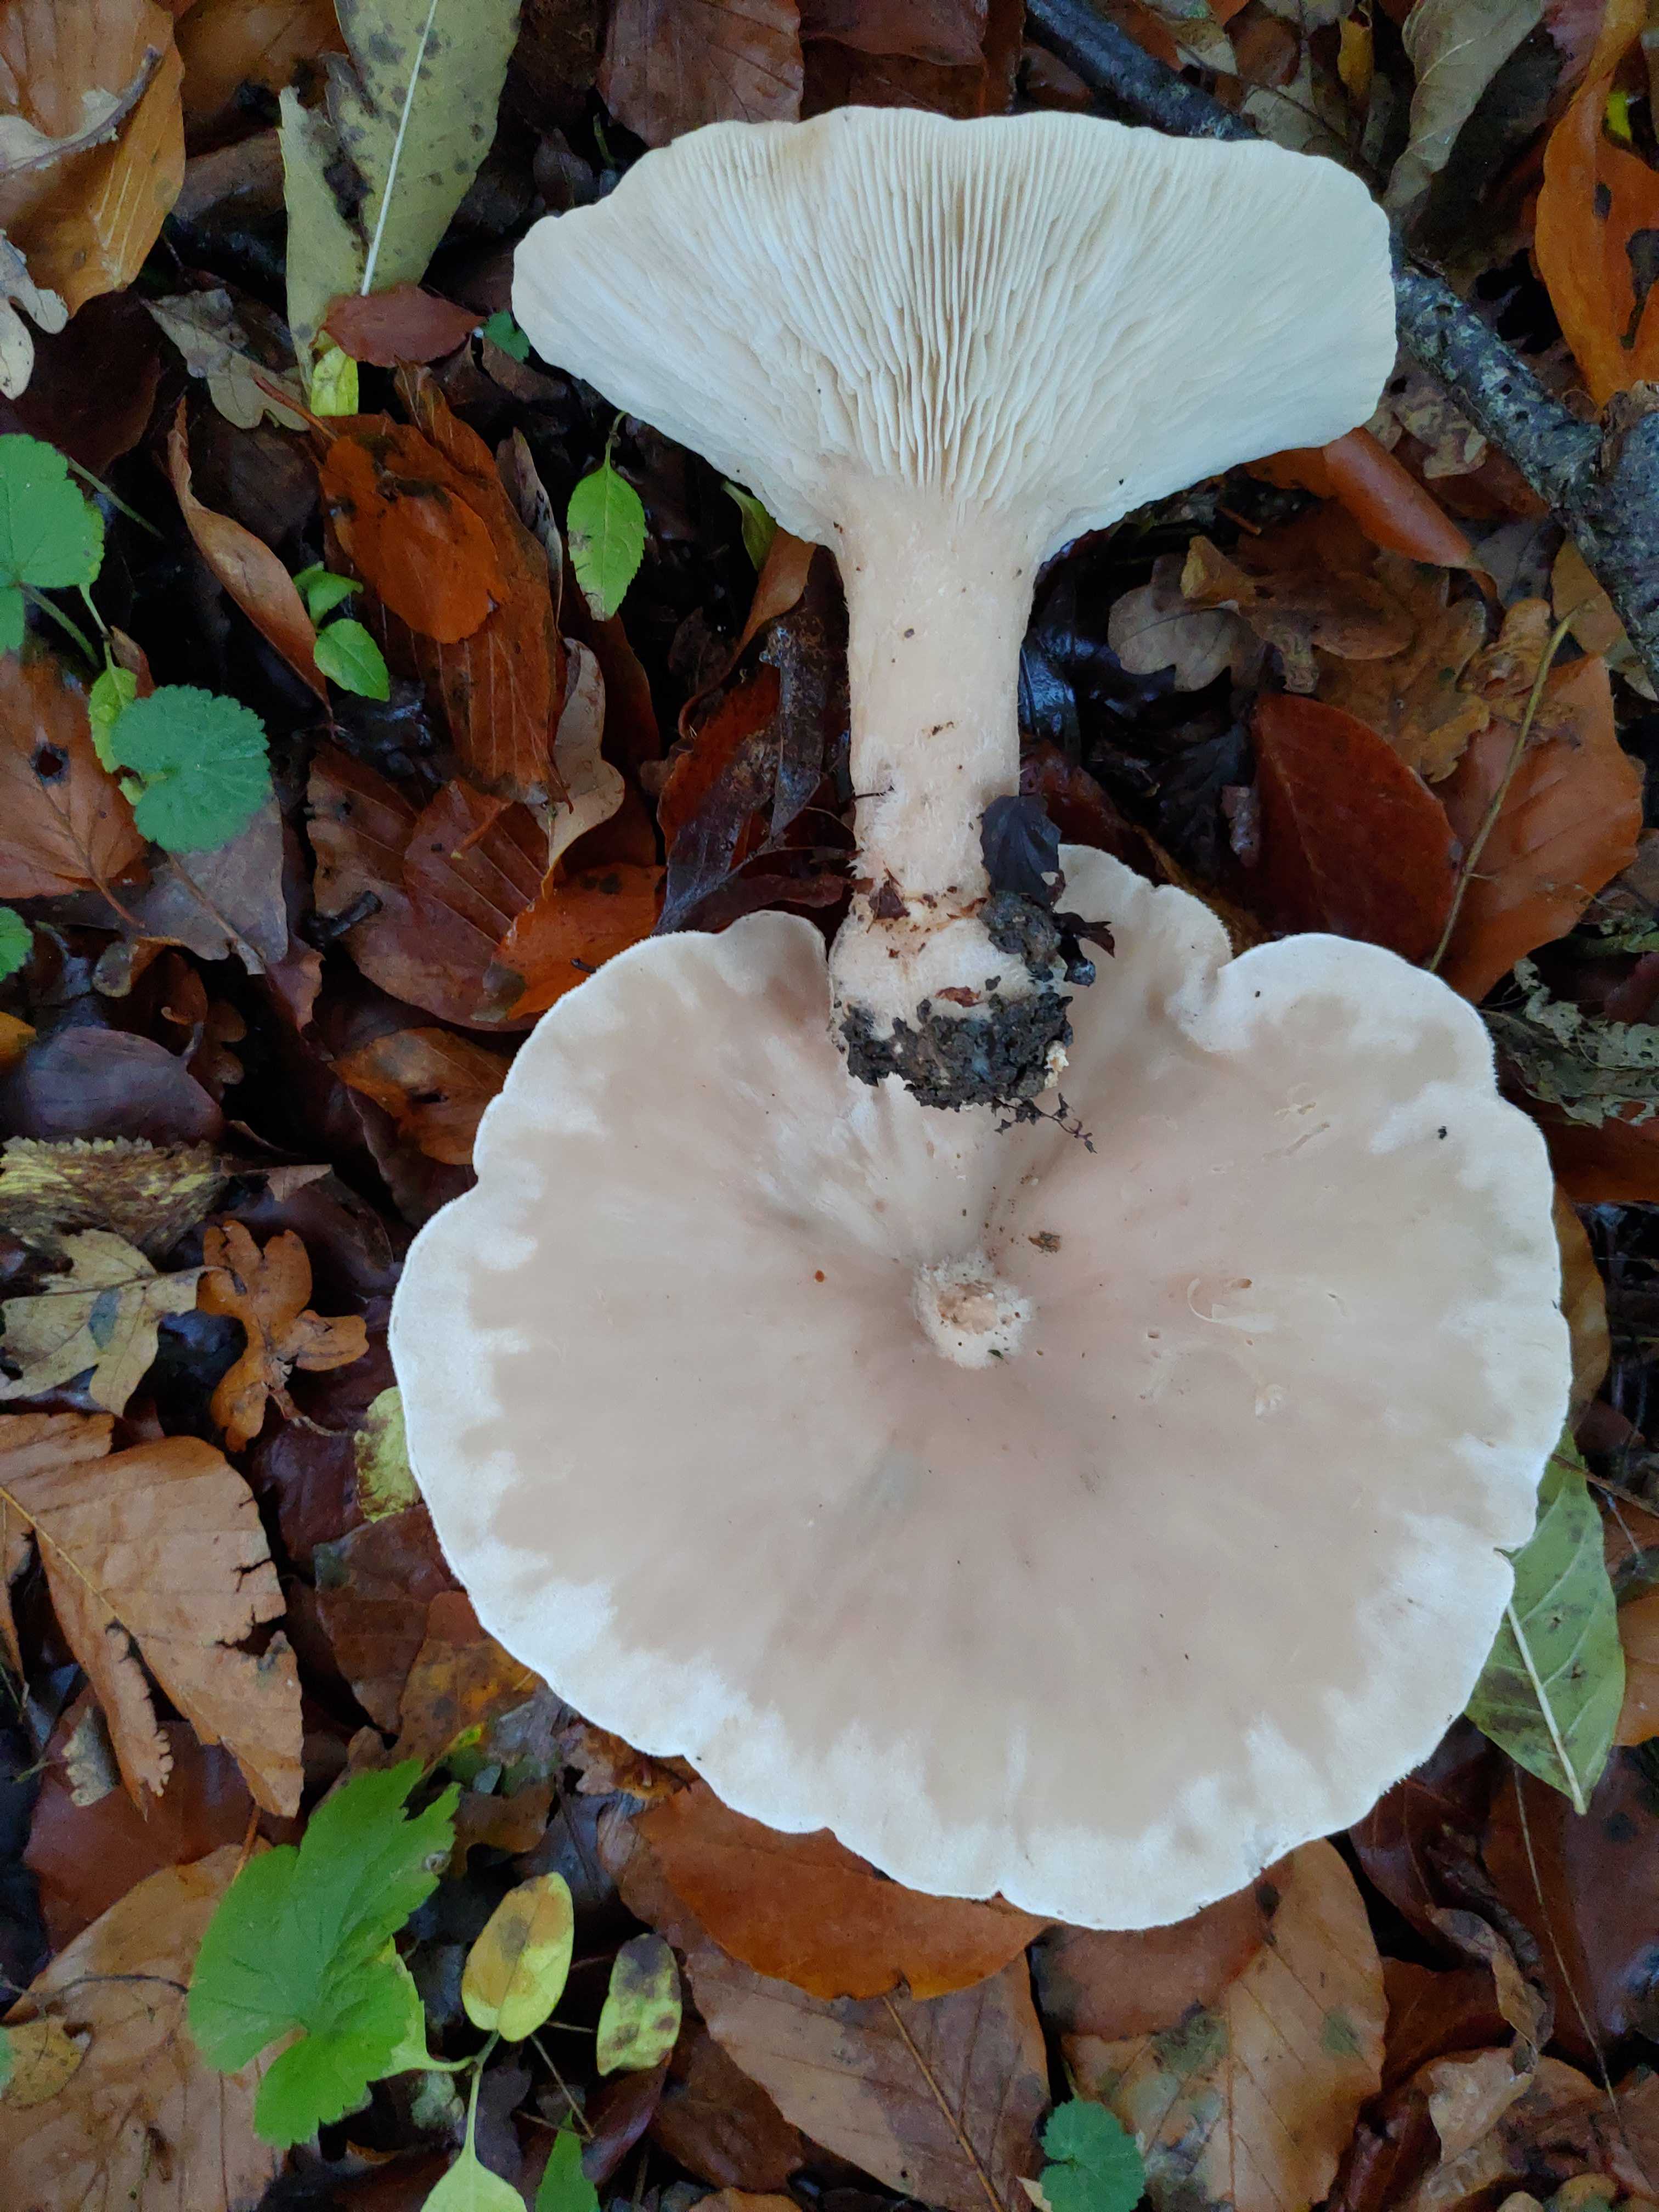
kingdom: Fungi
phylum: Basidiomycota
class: Agaricomycetes
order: Agaricales
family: Tricholomataceae
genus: Clitocybe
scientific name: Clitocybe nebularis
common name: tåge-tragthat
